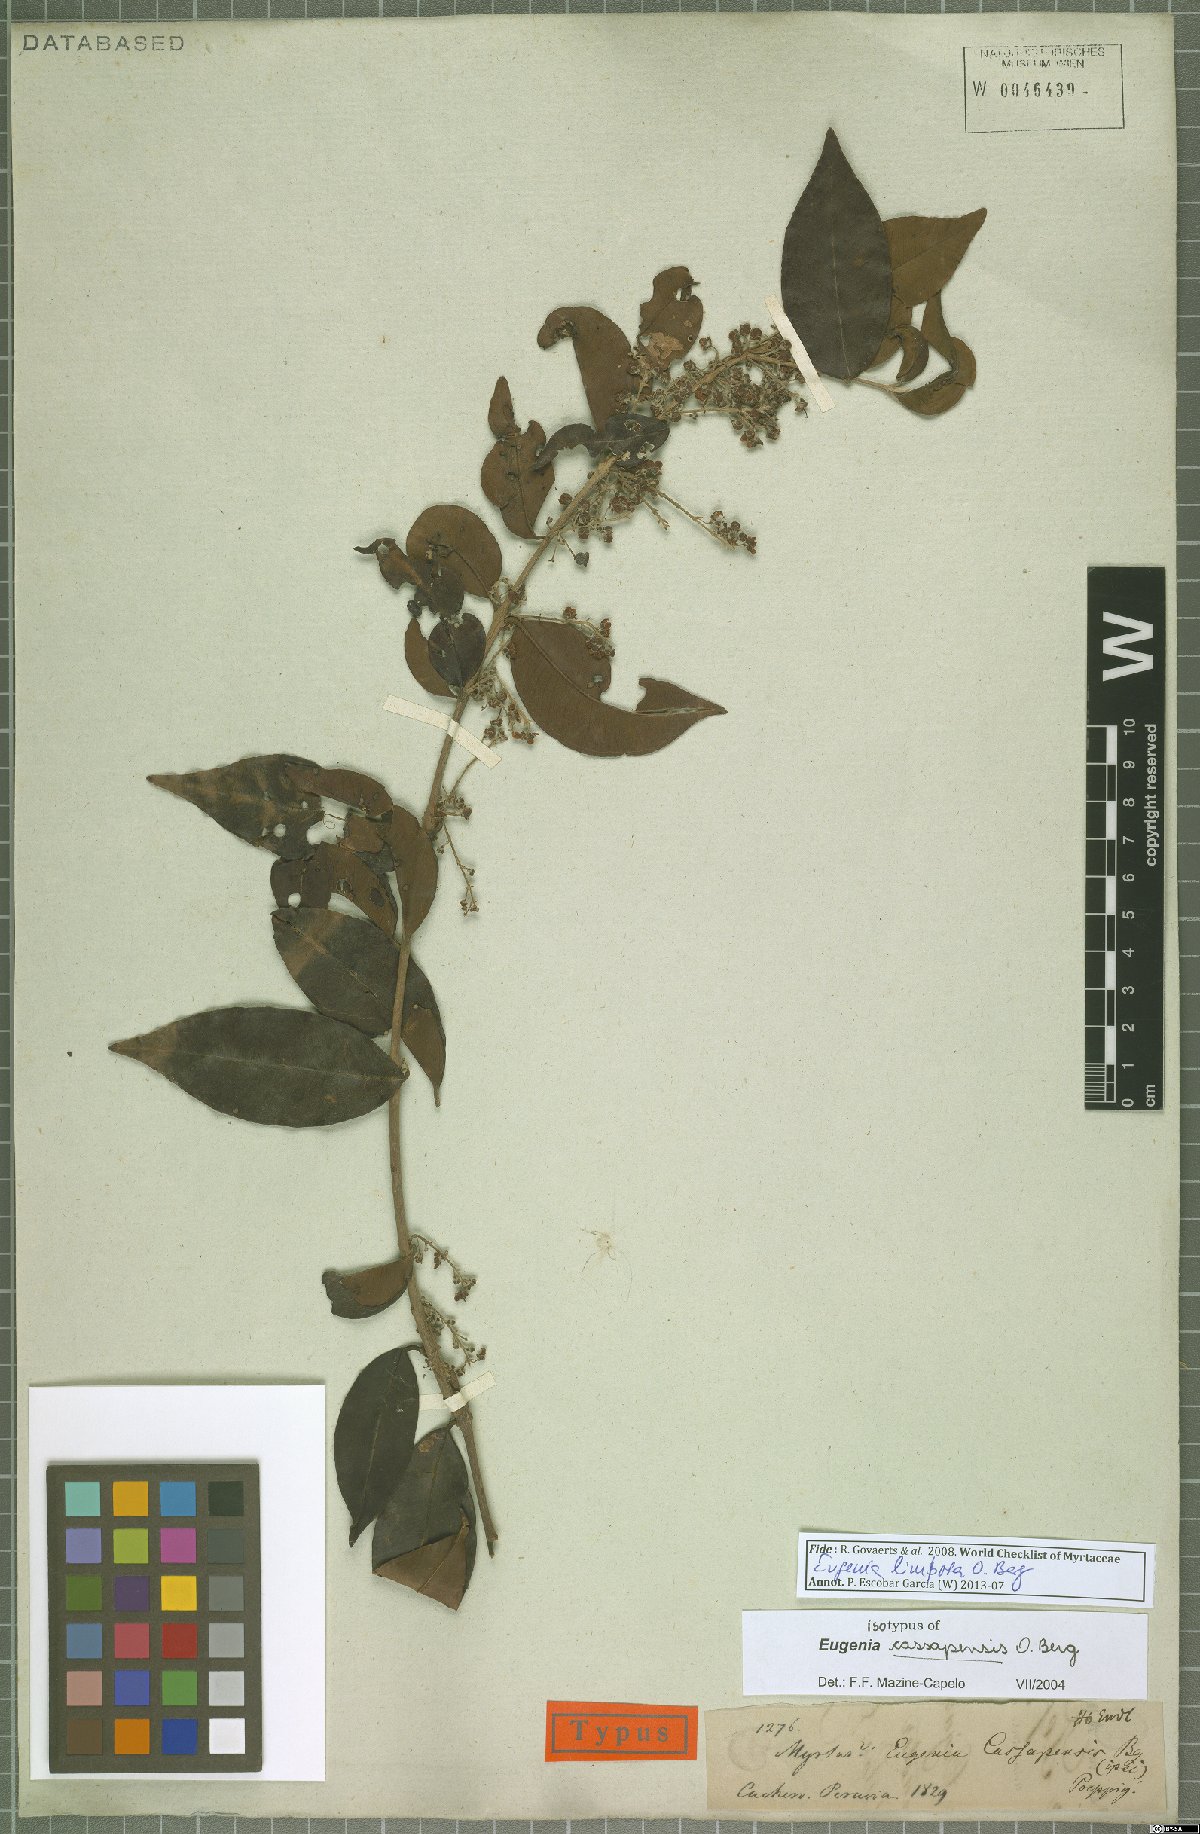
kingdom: Plantae
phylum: Tracheophyta
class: Magnoliopsida
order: Myrtales
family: Myrtaceae
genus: Eugenia
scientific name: Eugenia limbosa
